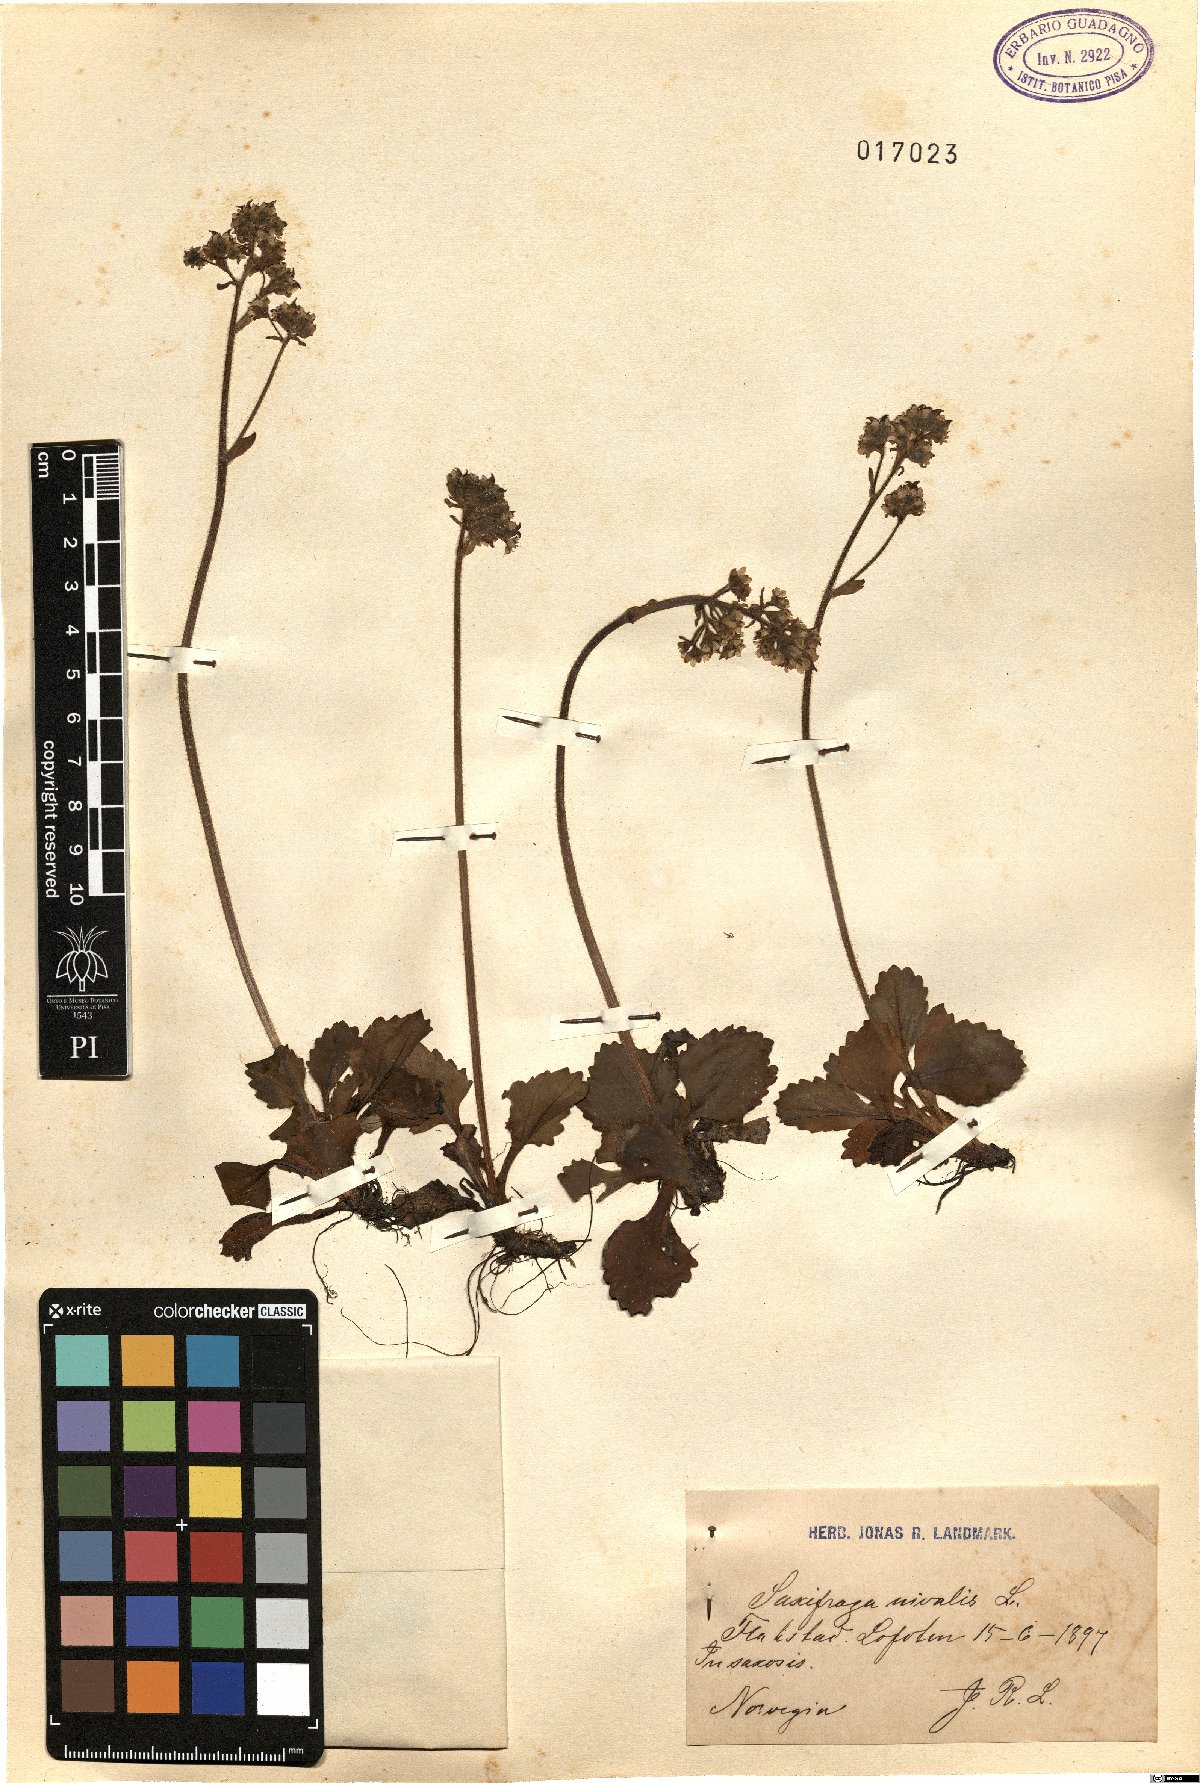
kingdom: Plantae
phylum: Tracheophyta
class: Magnoliopsida
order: Saxifragales
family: Saxifragaceae
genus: Micranthes
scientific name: Micranthes nivalis
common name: Alpine saxifrage
